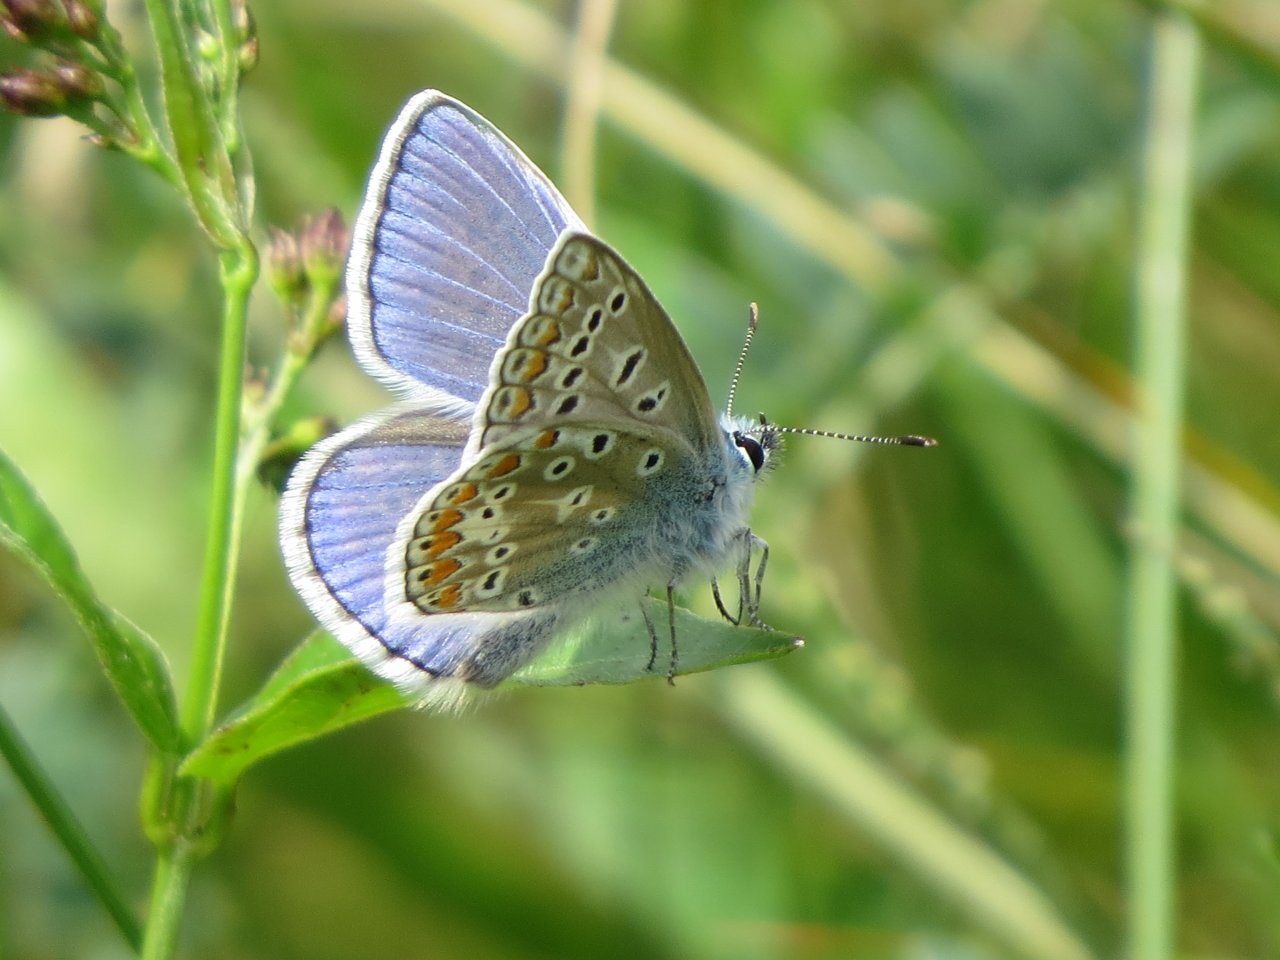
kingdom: Animalia
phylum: Arthropoda
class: Insecta
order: Lepidoptera
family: Lycaenidae
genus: Polyommatus
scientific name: Polyommatus icarus
